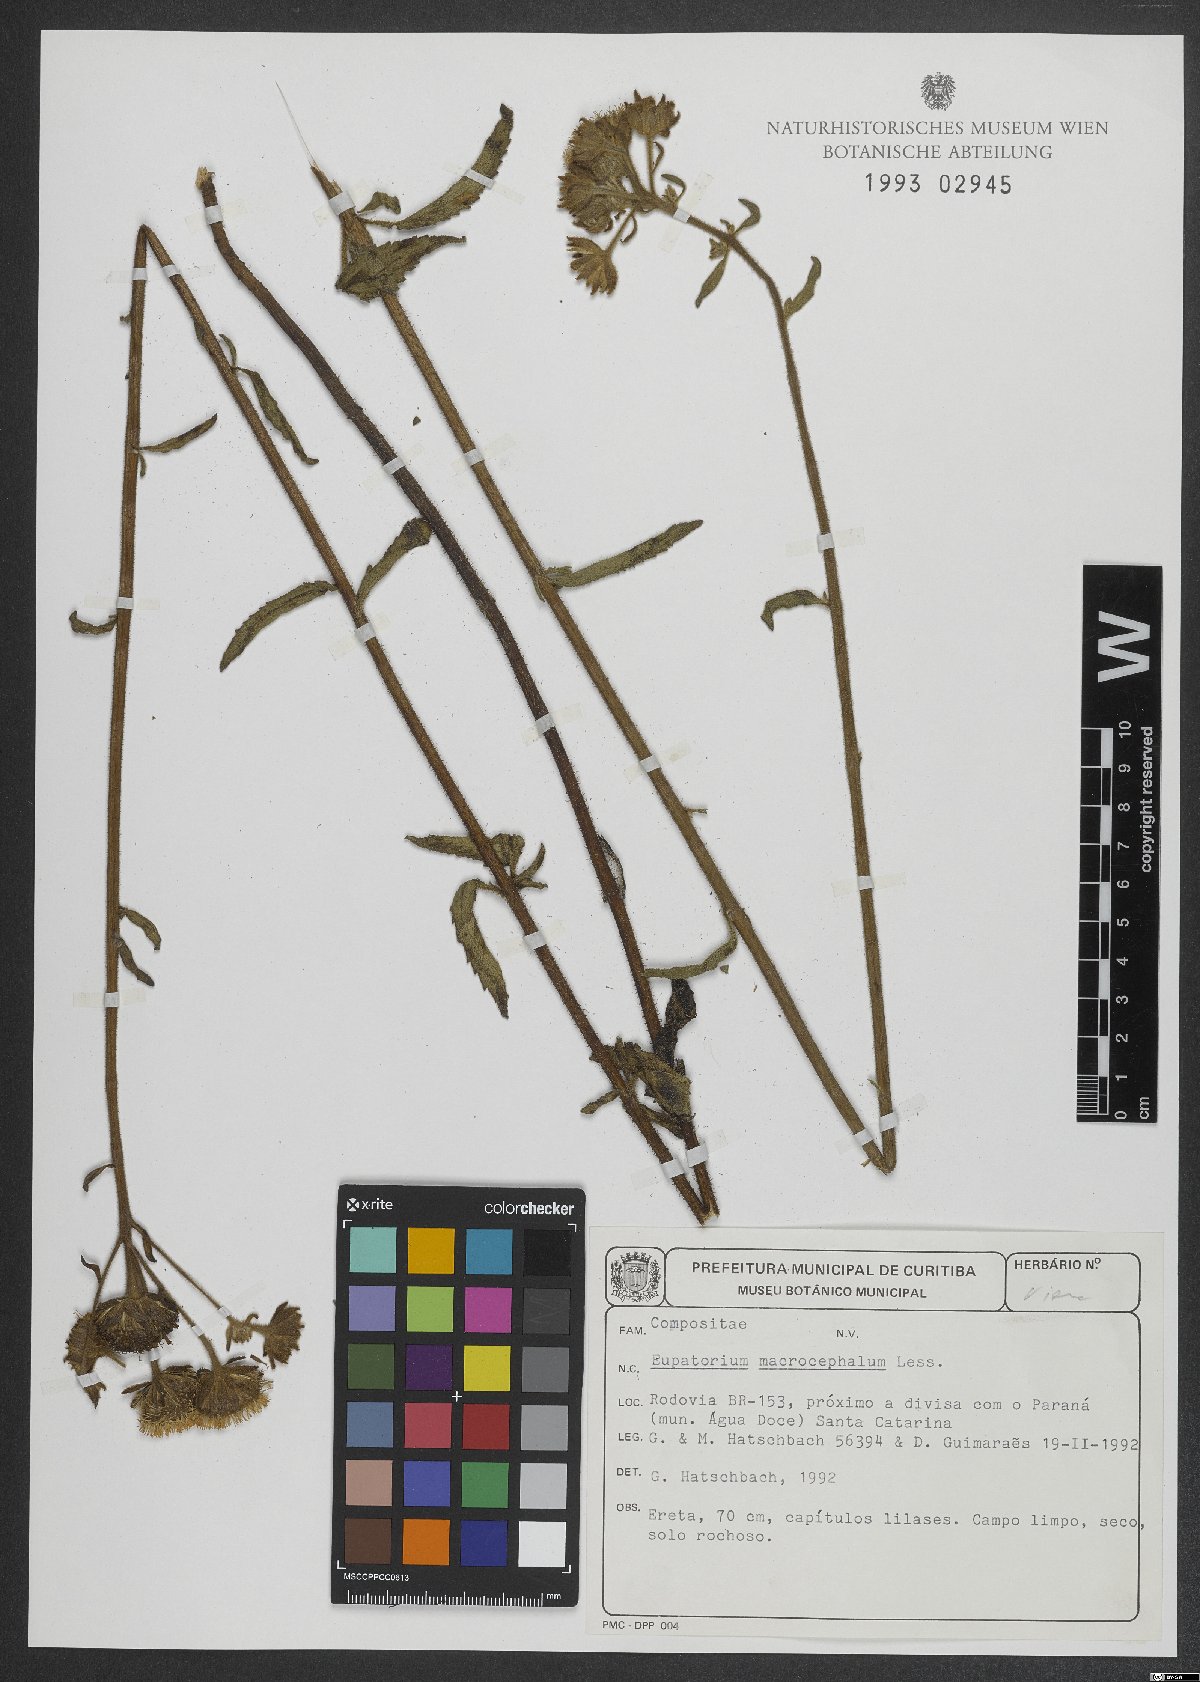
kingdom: Plantae
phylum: Tracheophyta
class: Magnoliopsida
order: Asterales
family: Asteraceae
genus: Campuloclinium
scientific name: Campuloclinium macrocephalum
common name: Pompomweed
